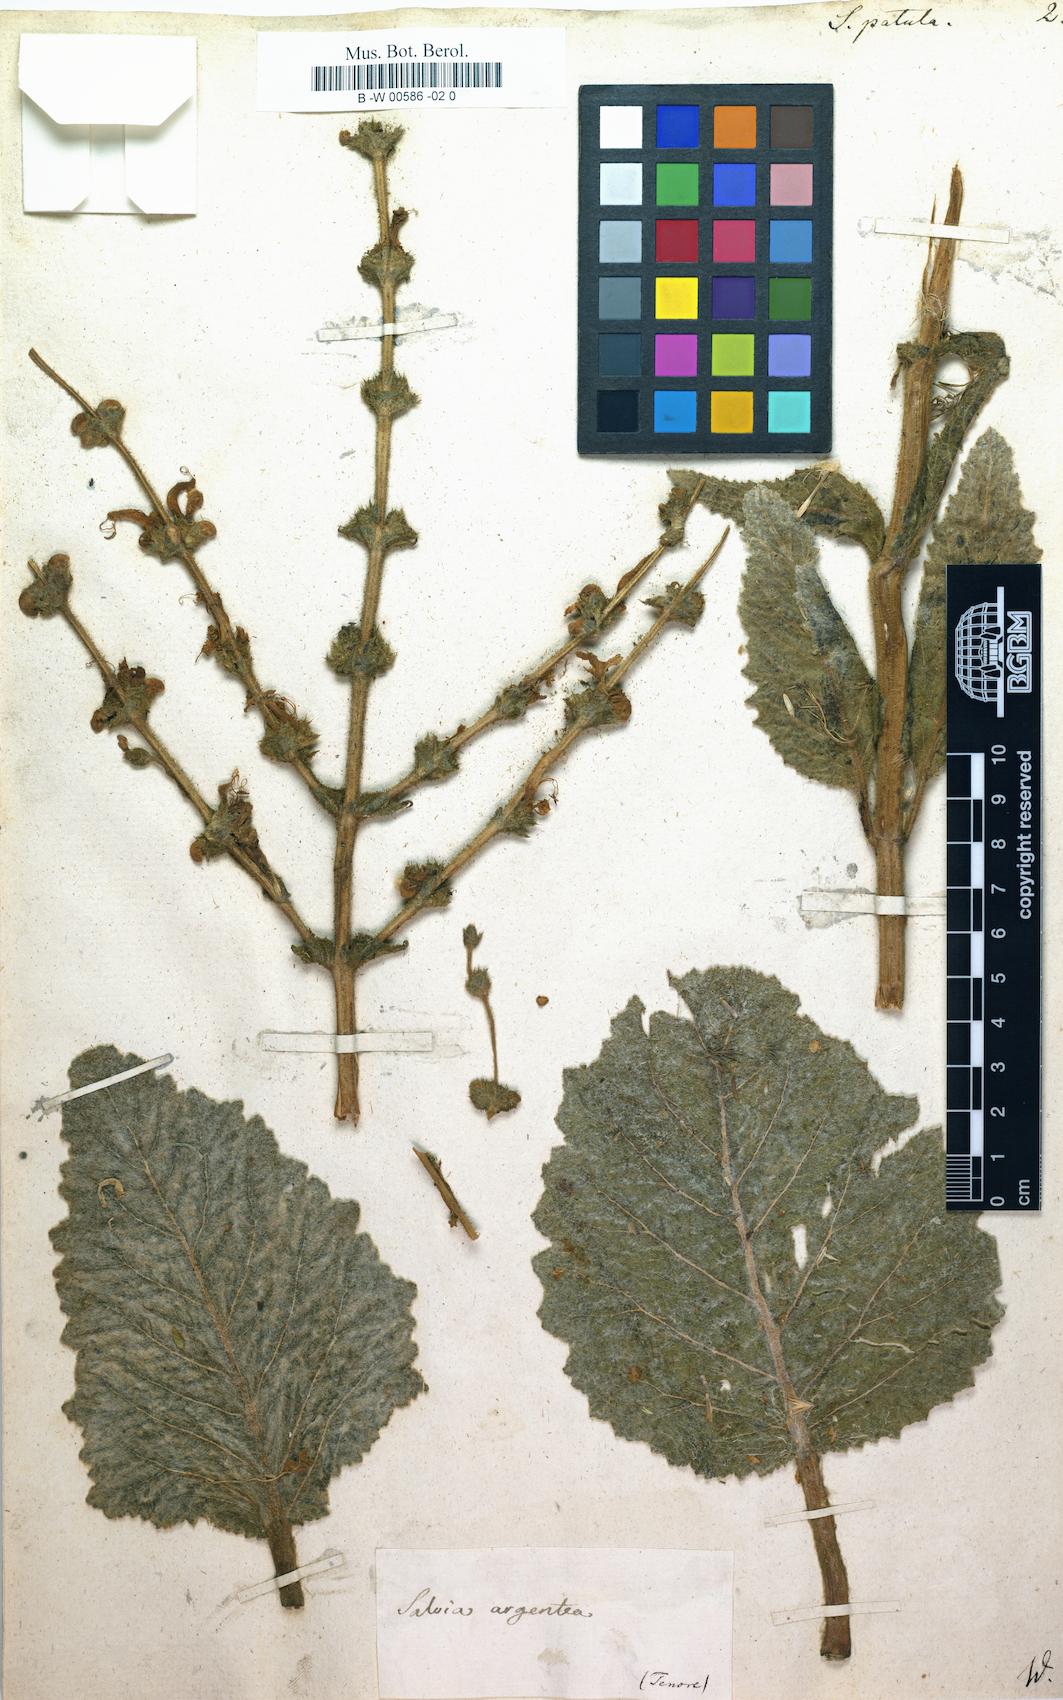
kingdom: Plantae
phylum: Tracheophyta
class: Magnoliopsida
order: Lamiales
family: Lamiaceae
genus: Salvia
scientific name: Salvia patula
